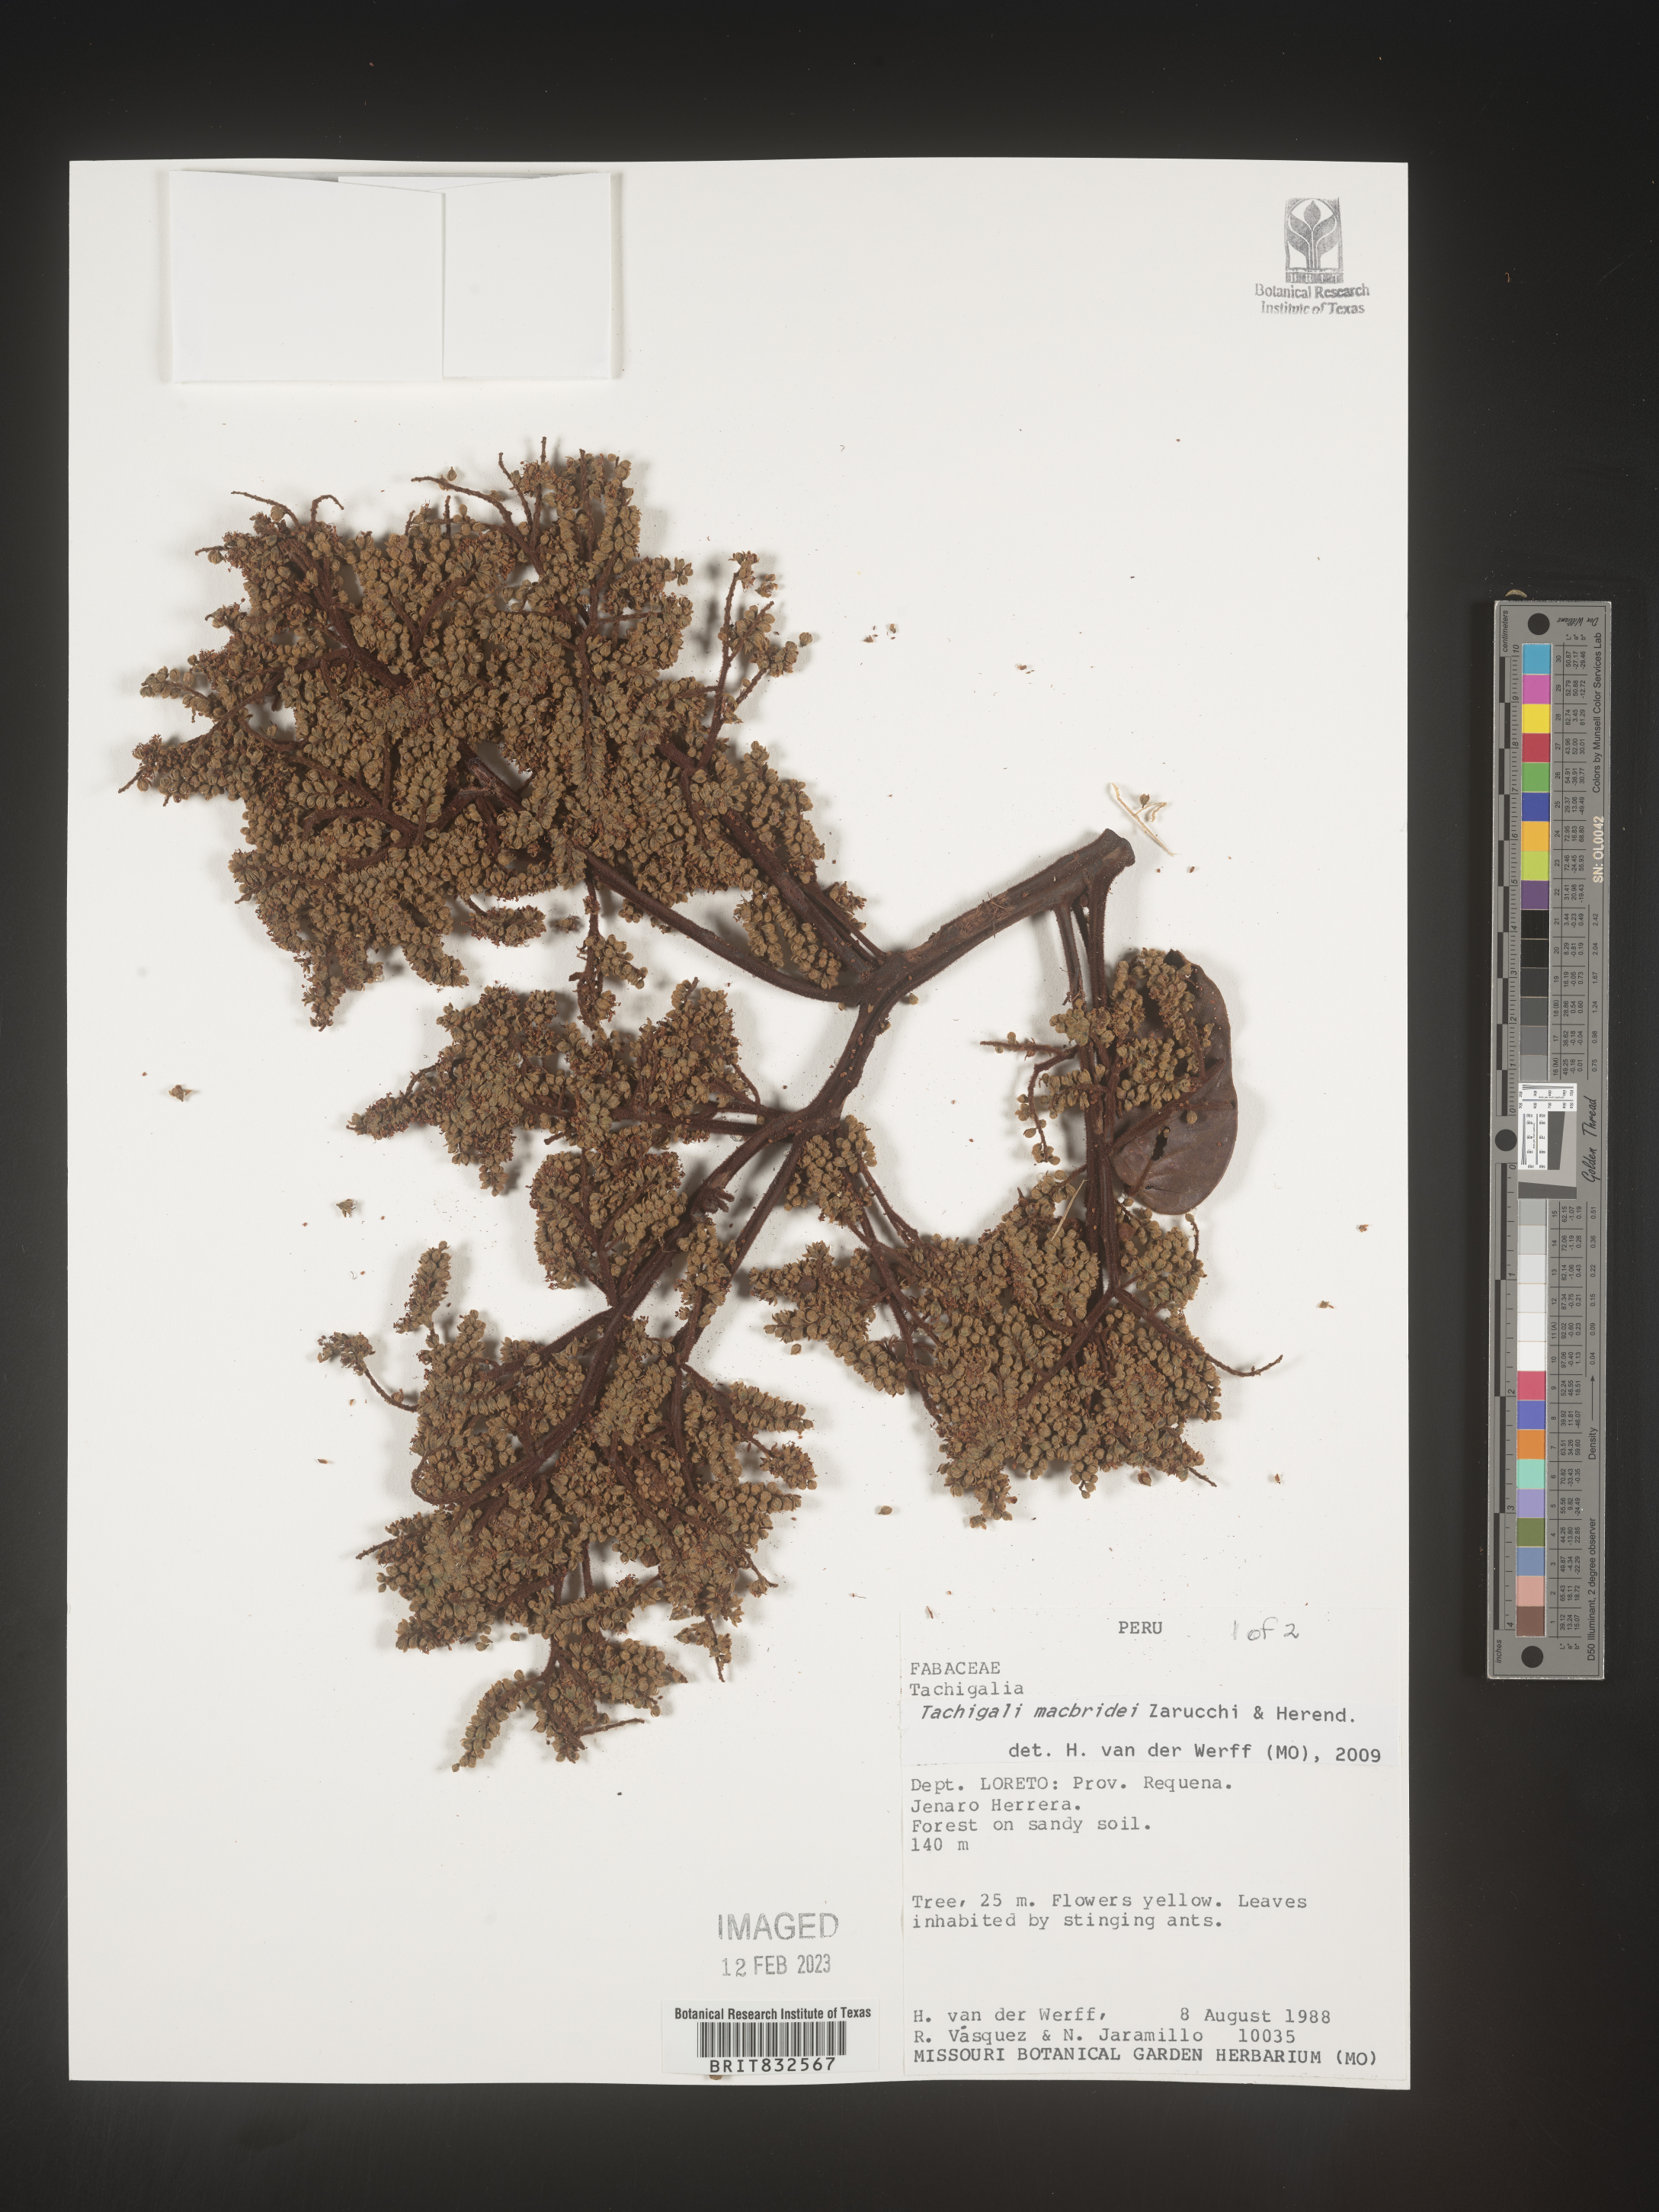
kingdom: Plantae
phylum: Tracheophyta
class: Magnoliopsida
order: Fabales
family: Fabaceae
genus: Tachigali
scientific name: Tachigali macbridei
